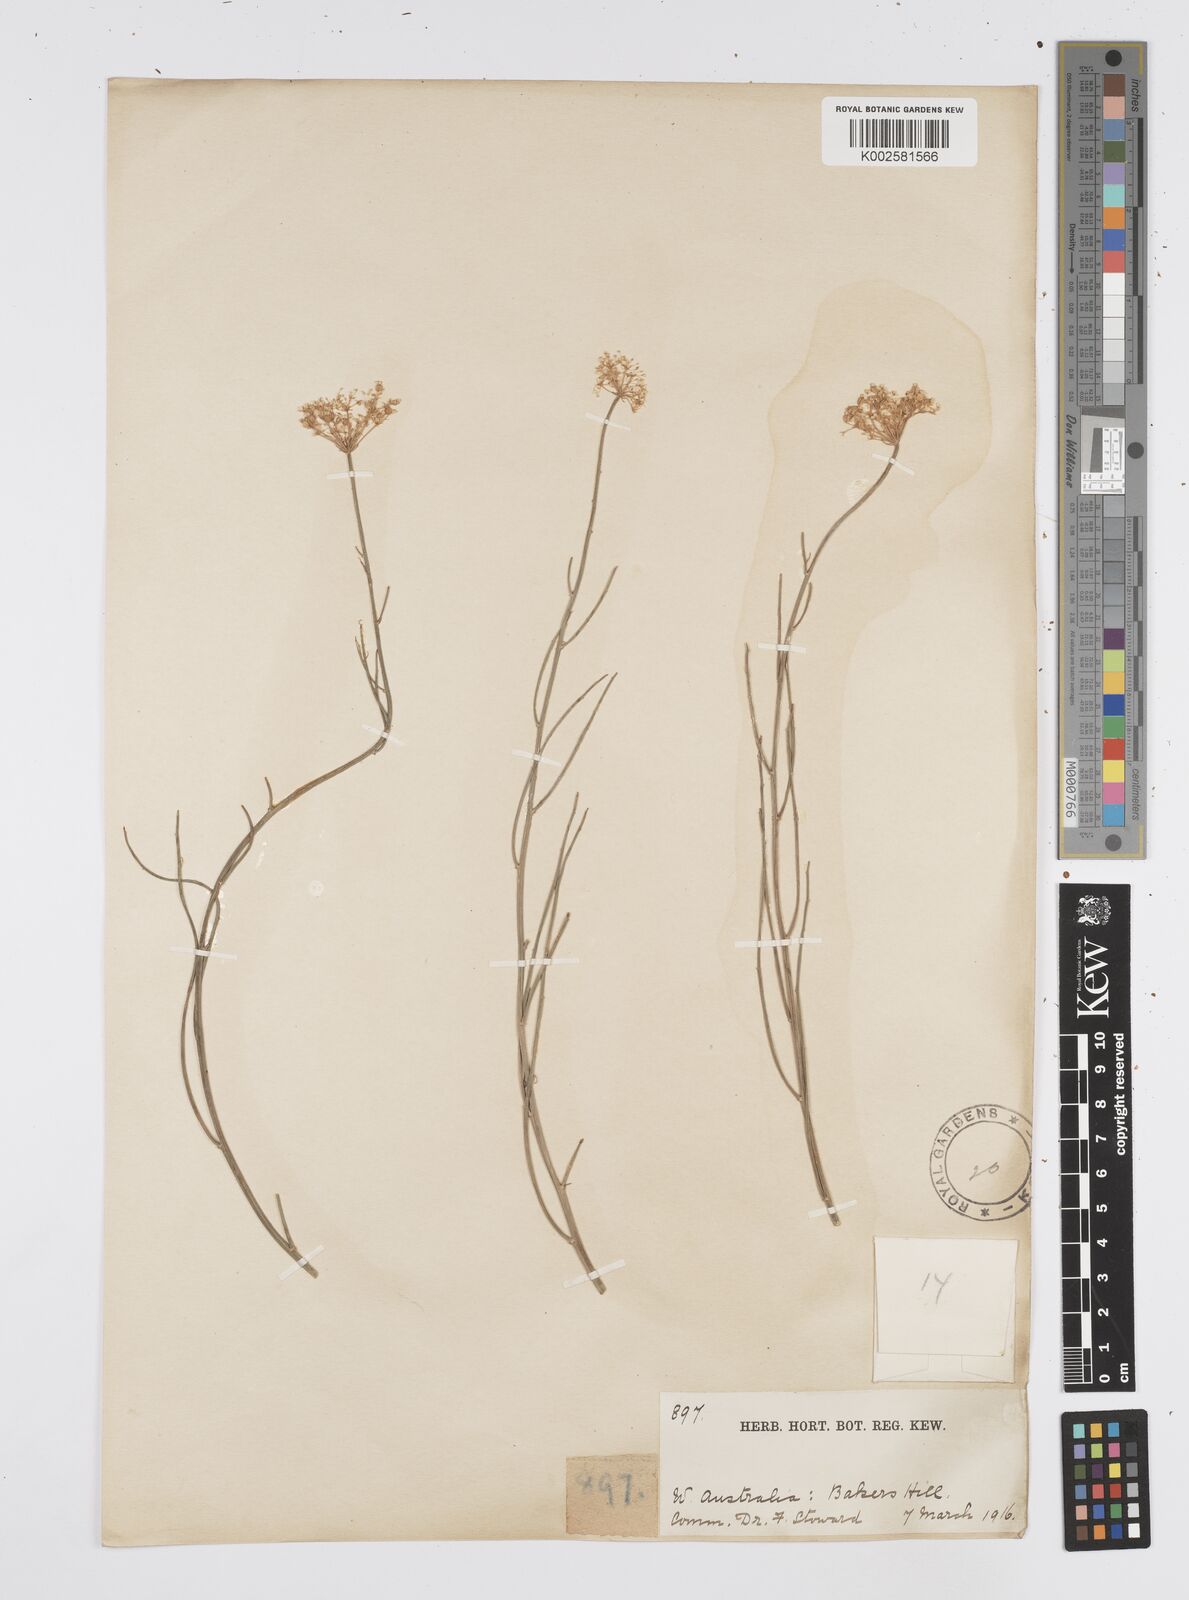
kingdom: Plantae
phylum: Tracheophyta
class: Magnoliopsida
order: Apiales
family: Apiaceae
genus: Platysace
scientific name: Platysace juncea
